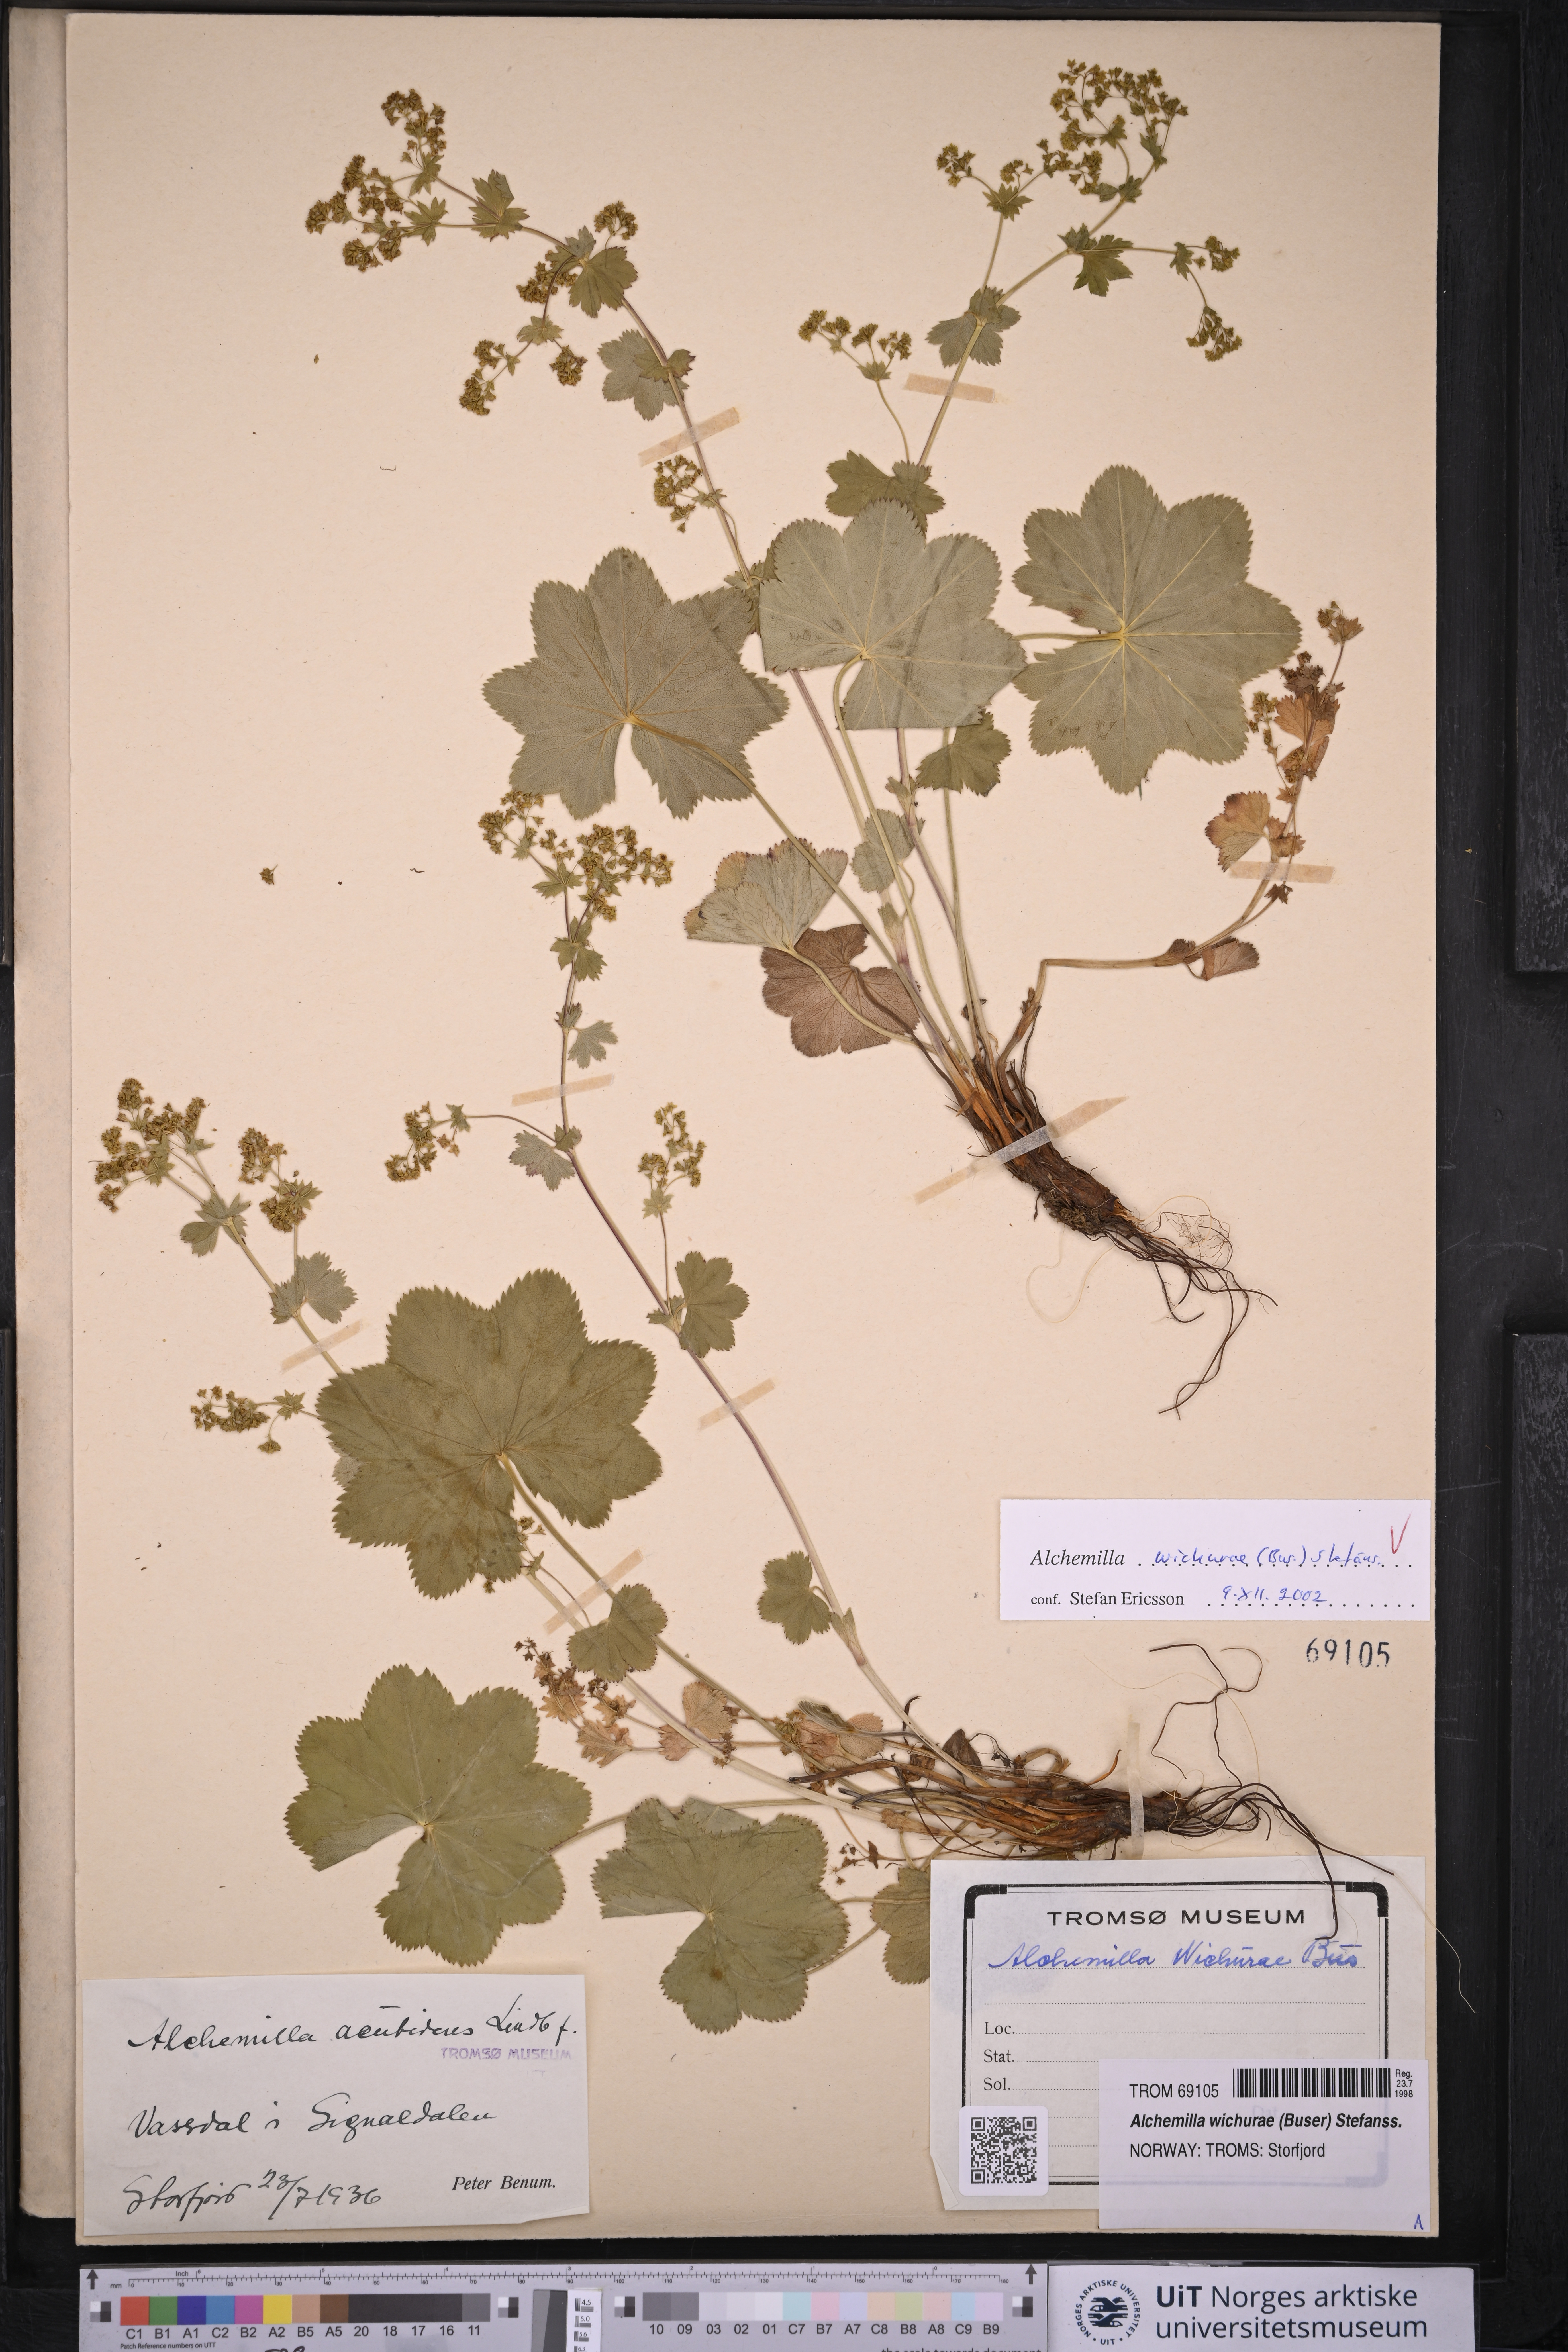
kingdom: Plantae
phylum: Tracheophyta
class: Magnoliopsida
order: Rosales
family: Rosaceae
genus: Alchemilla
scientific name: Alchemilla wichurae
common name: Rock lady's mantle
